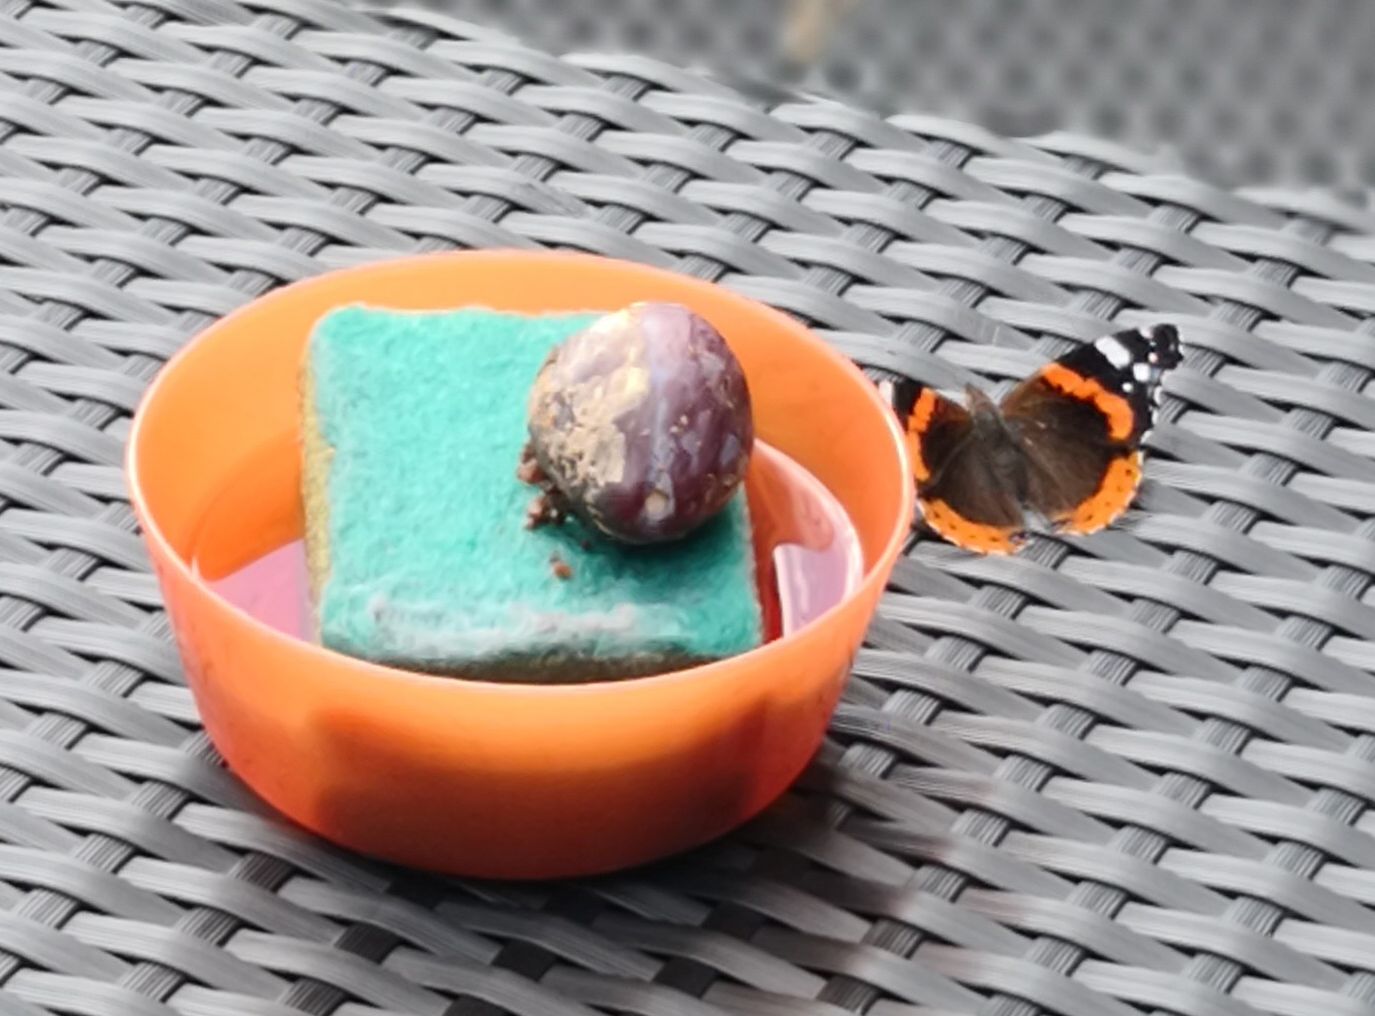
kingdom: Animalia
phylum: Arthropoda
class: Insecta
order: Lepidoptera
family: Nymphalidae
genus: Vanessa
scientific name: Vanessa atalanta
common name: Red admiral
